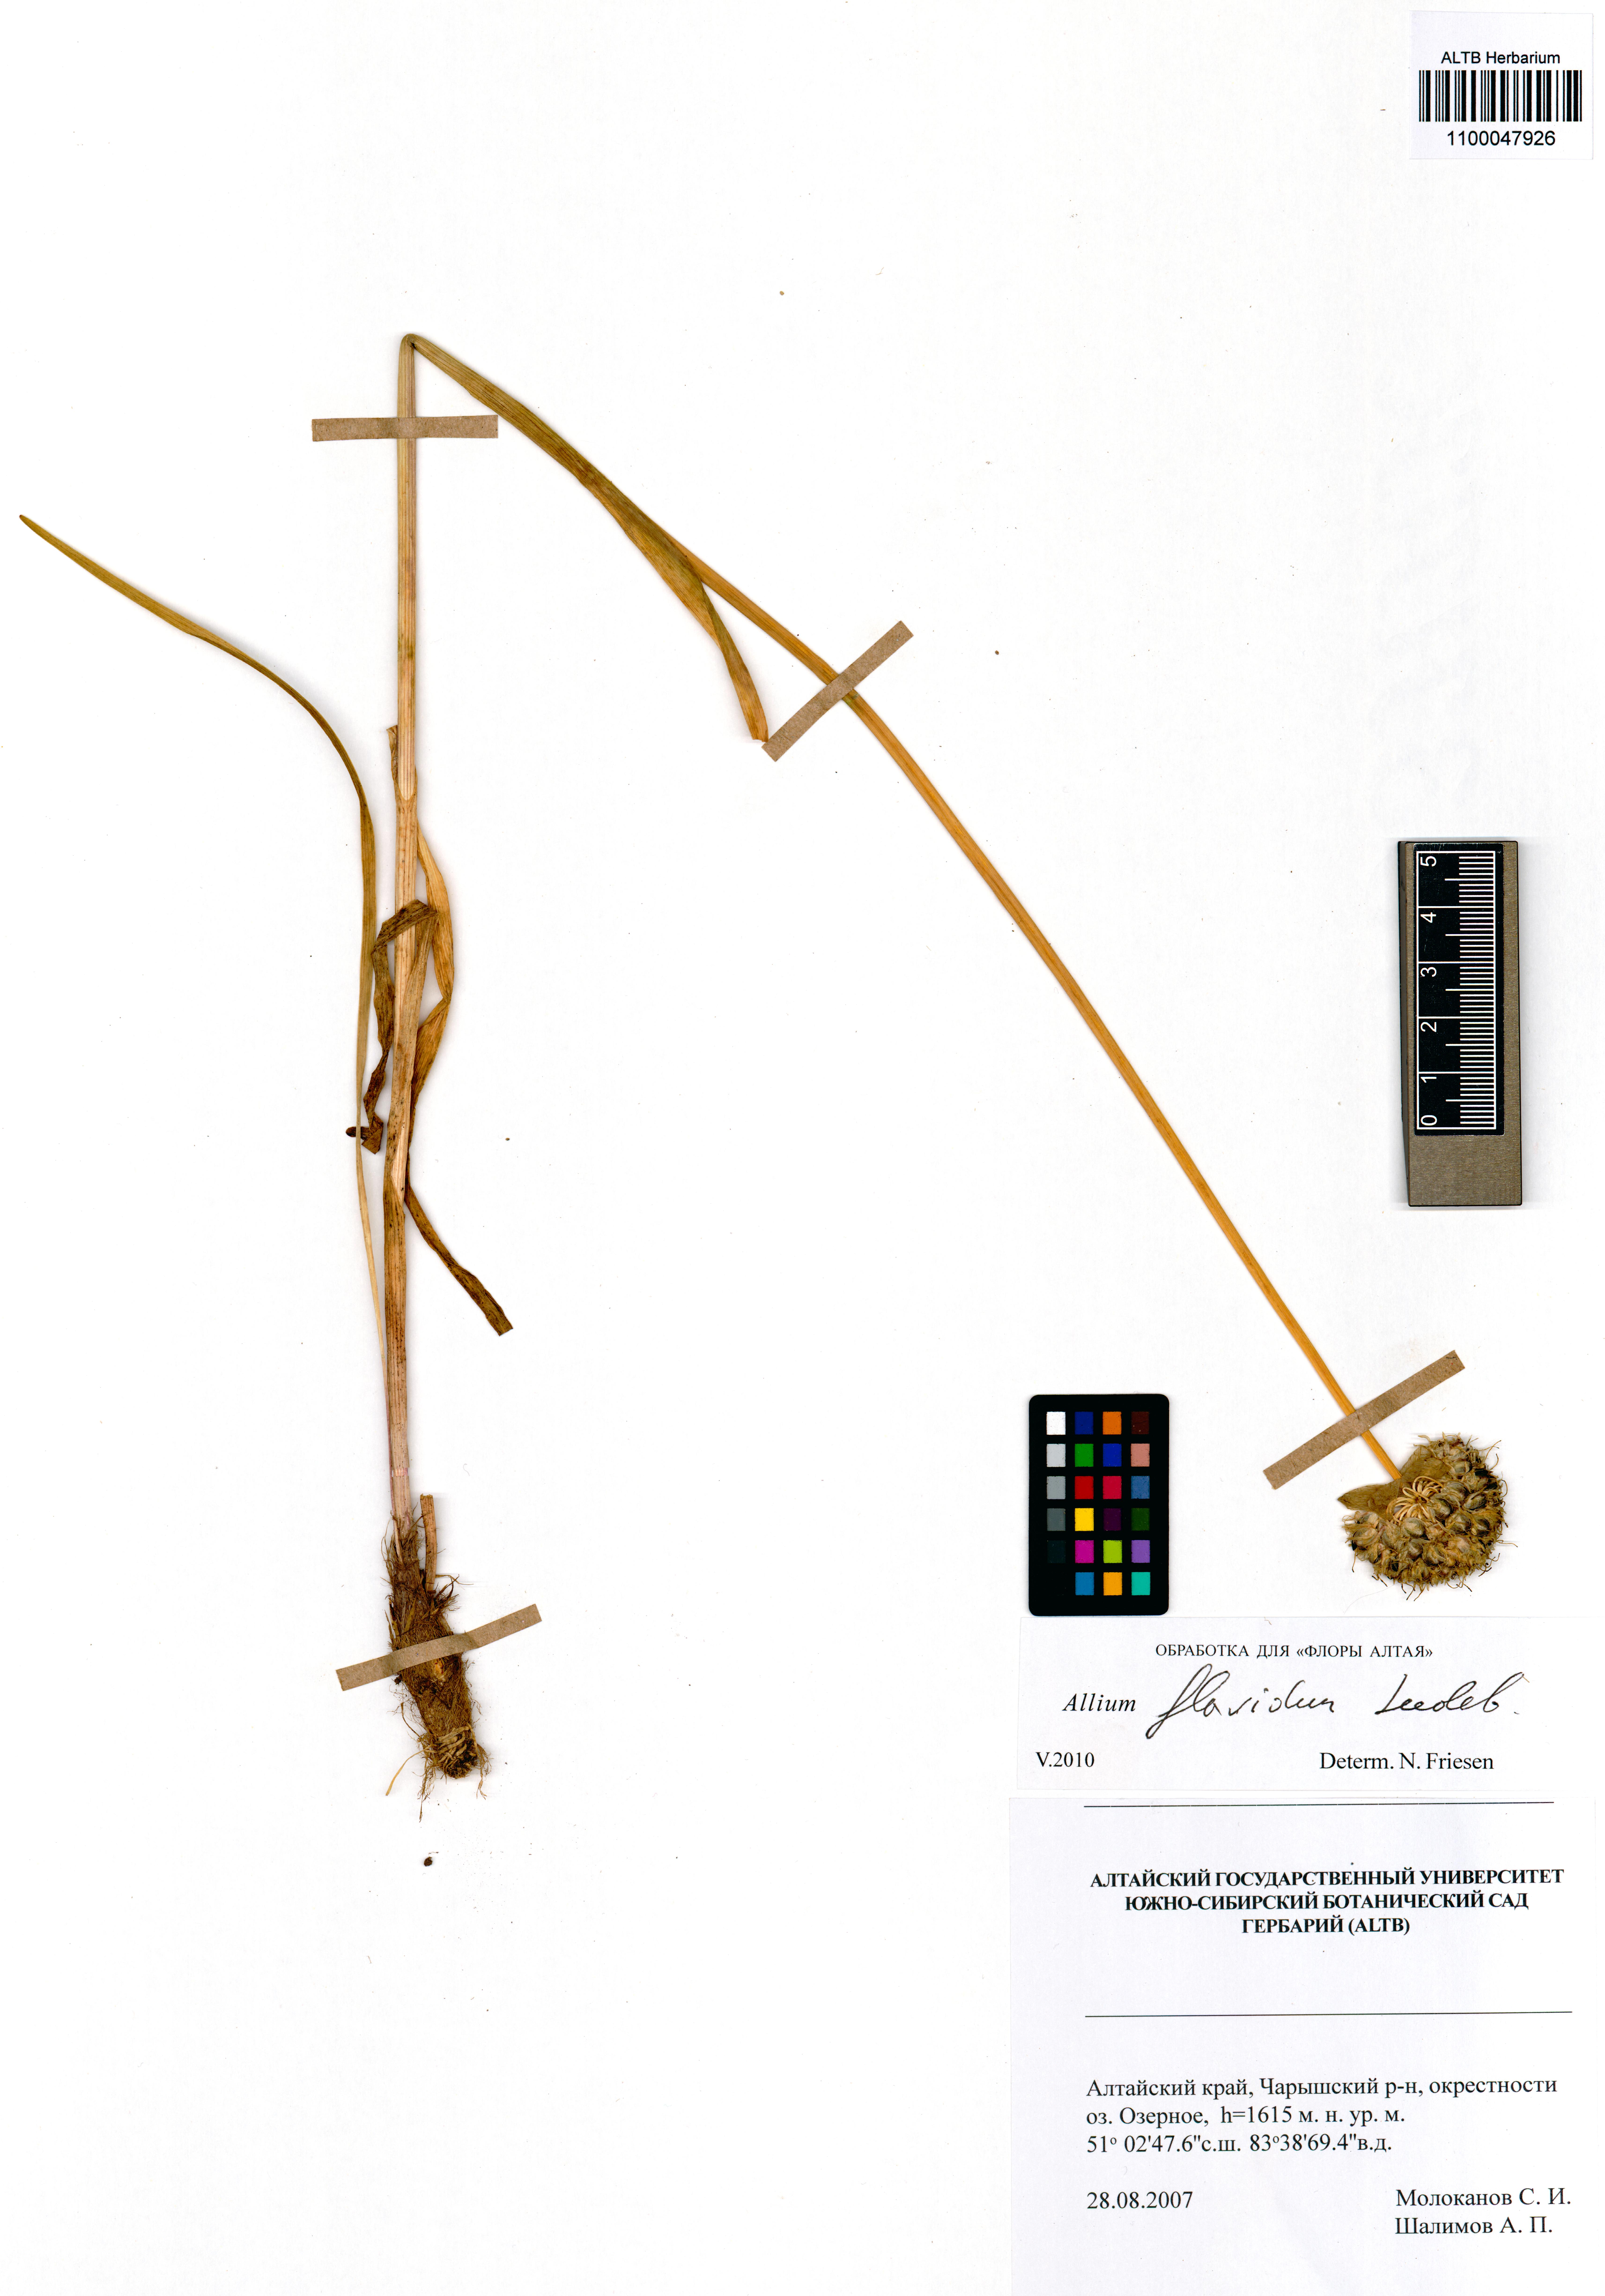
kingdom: Plantae
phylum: Tracheophyta
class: Liliopsida
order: Asparagales
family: Amaryllidaceae
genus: Allium
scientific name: Allium flavidum
